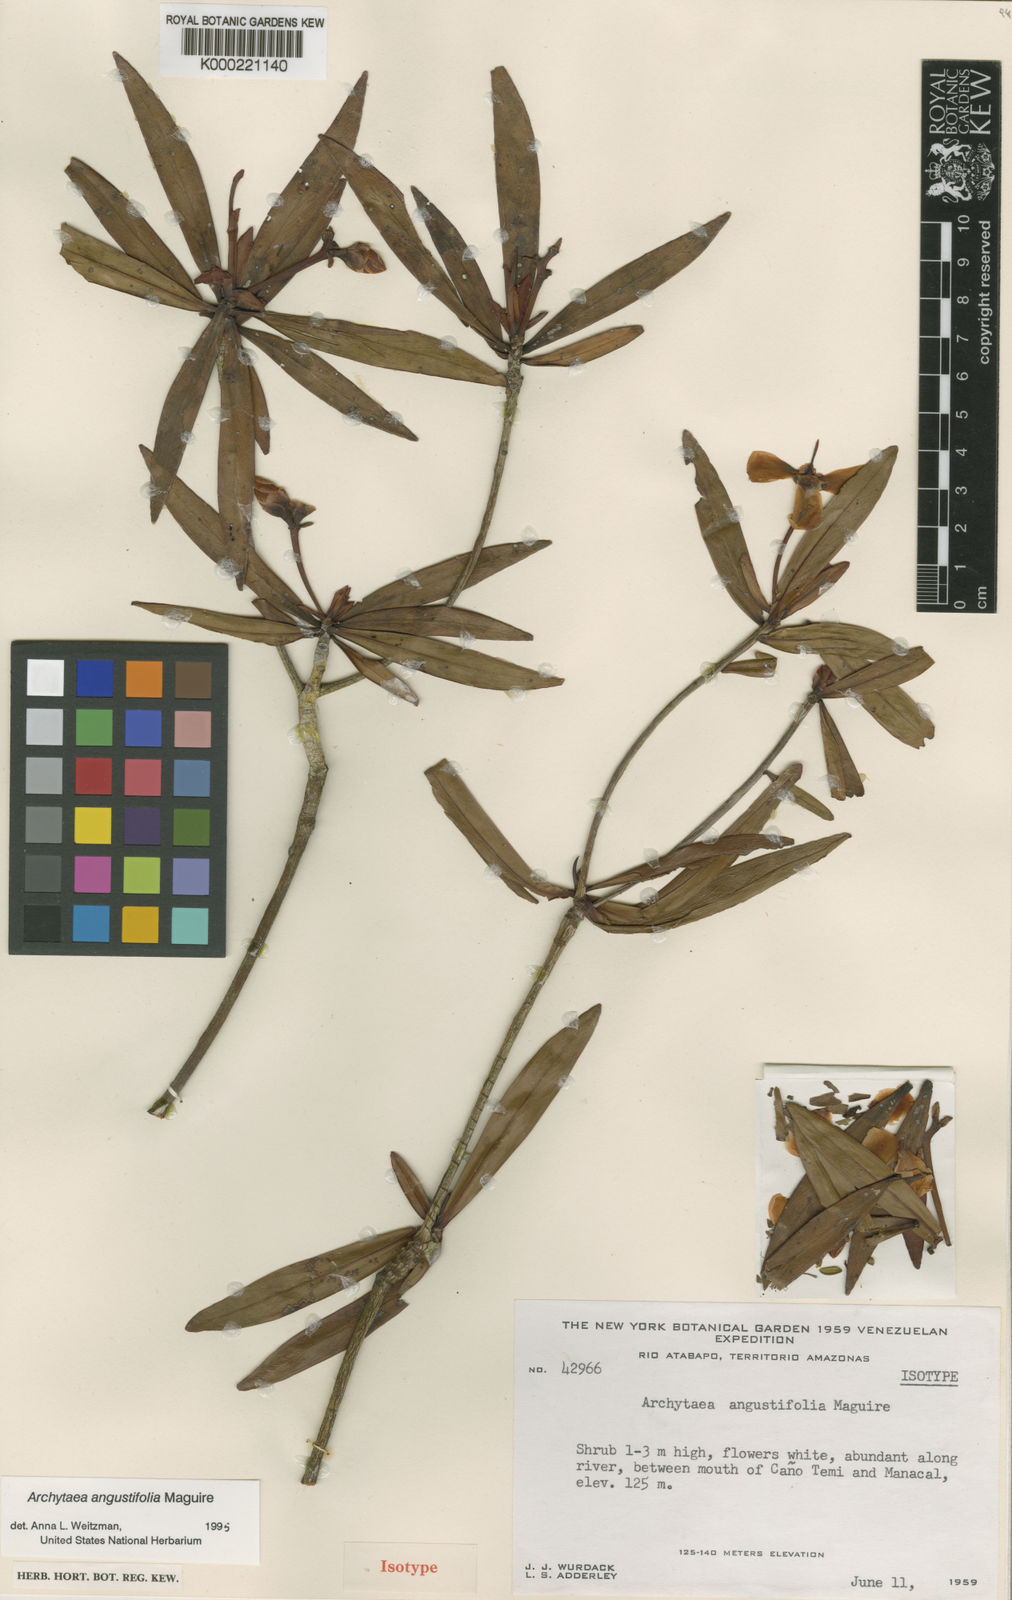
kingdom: Plantae
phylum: Tracheophyta
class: Magnoliopsida
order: Malpighiales
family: Bonnetiaceae
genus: Archytaea
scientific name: Archytaea angustifolia
